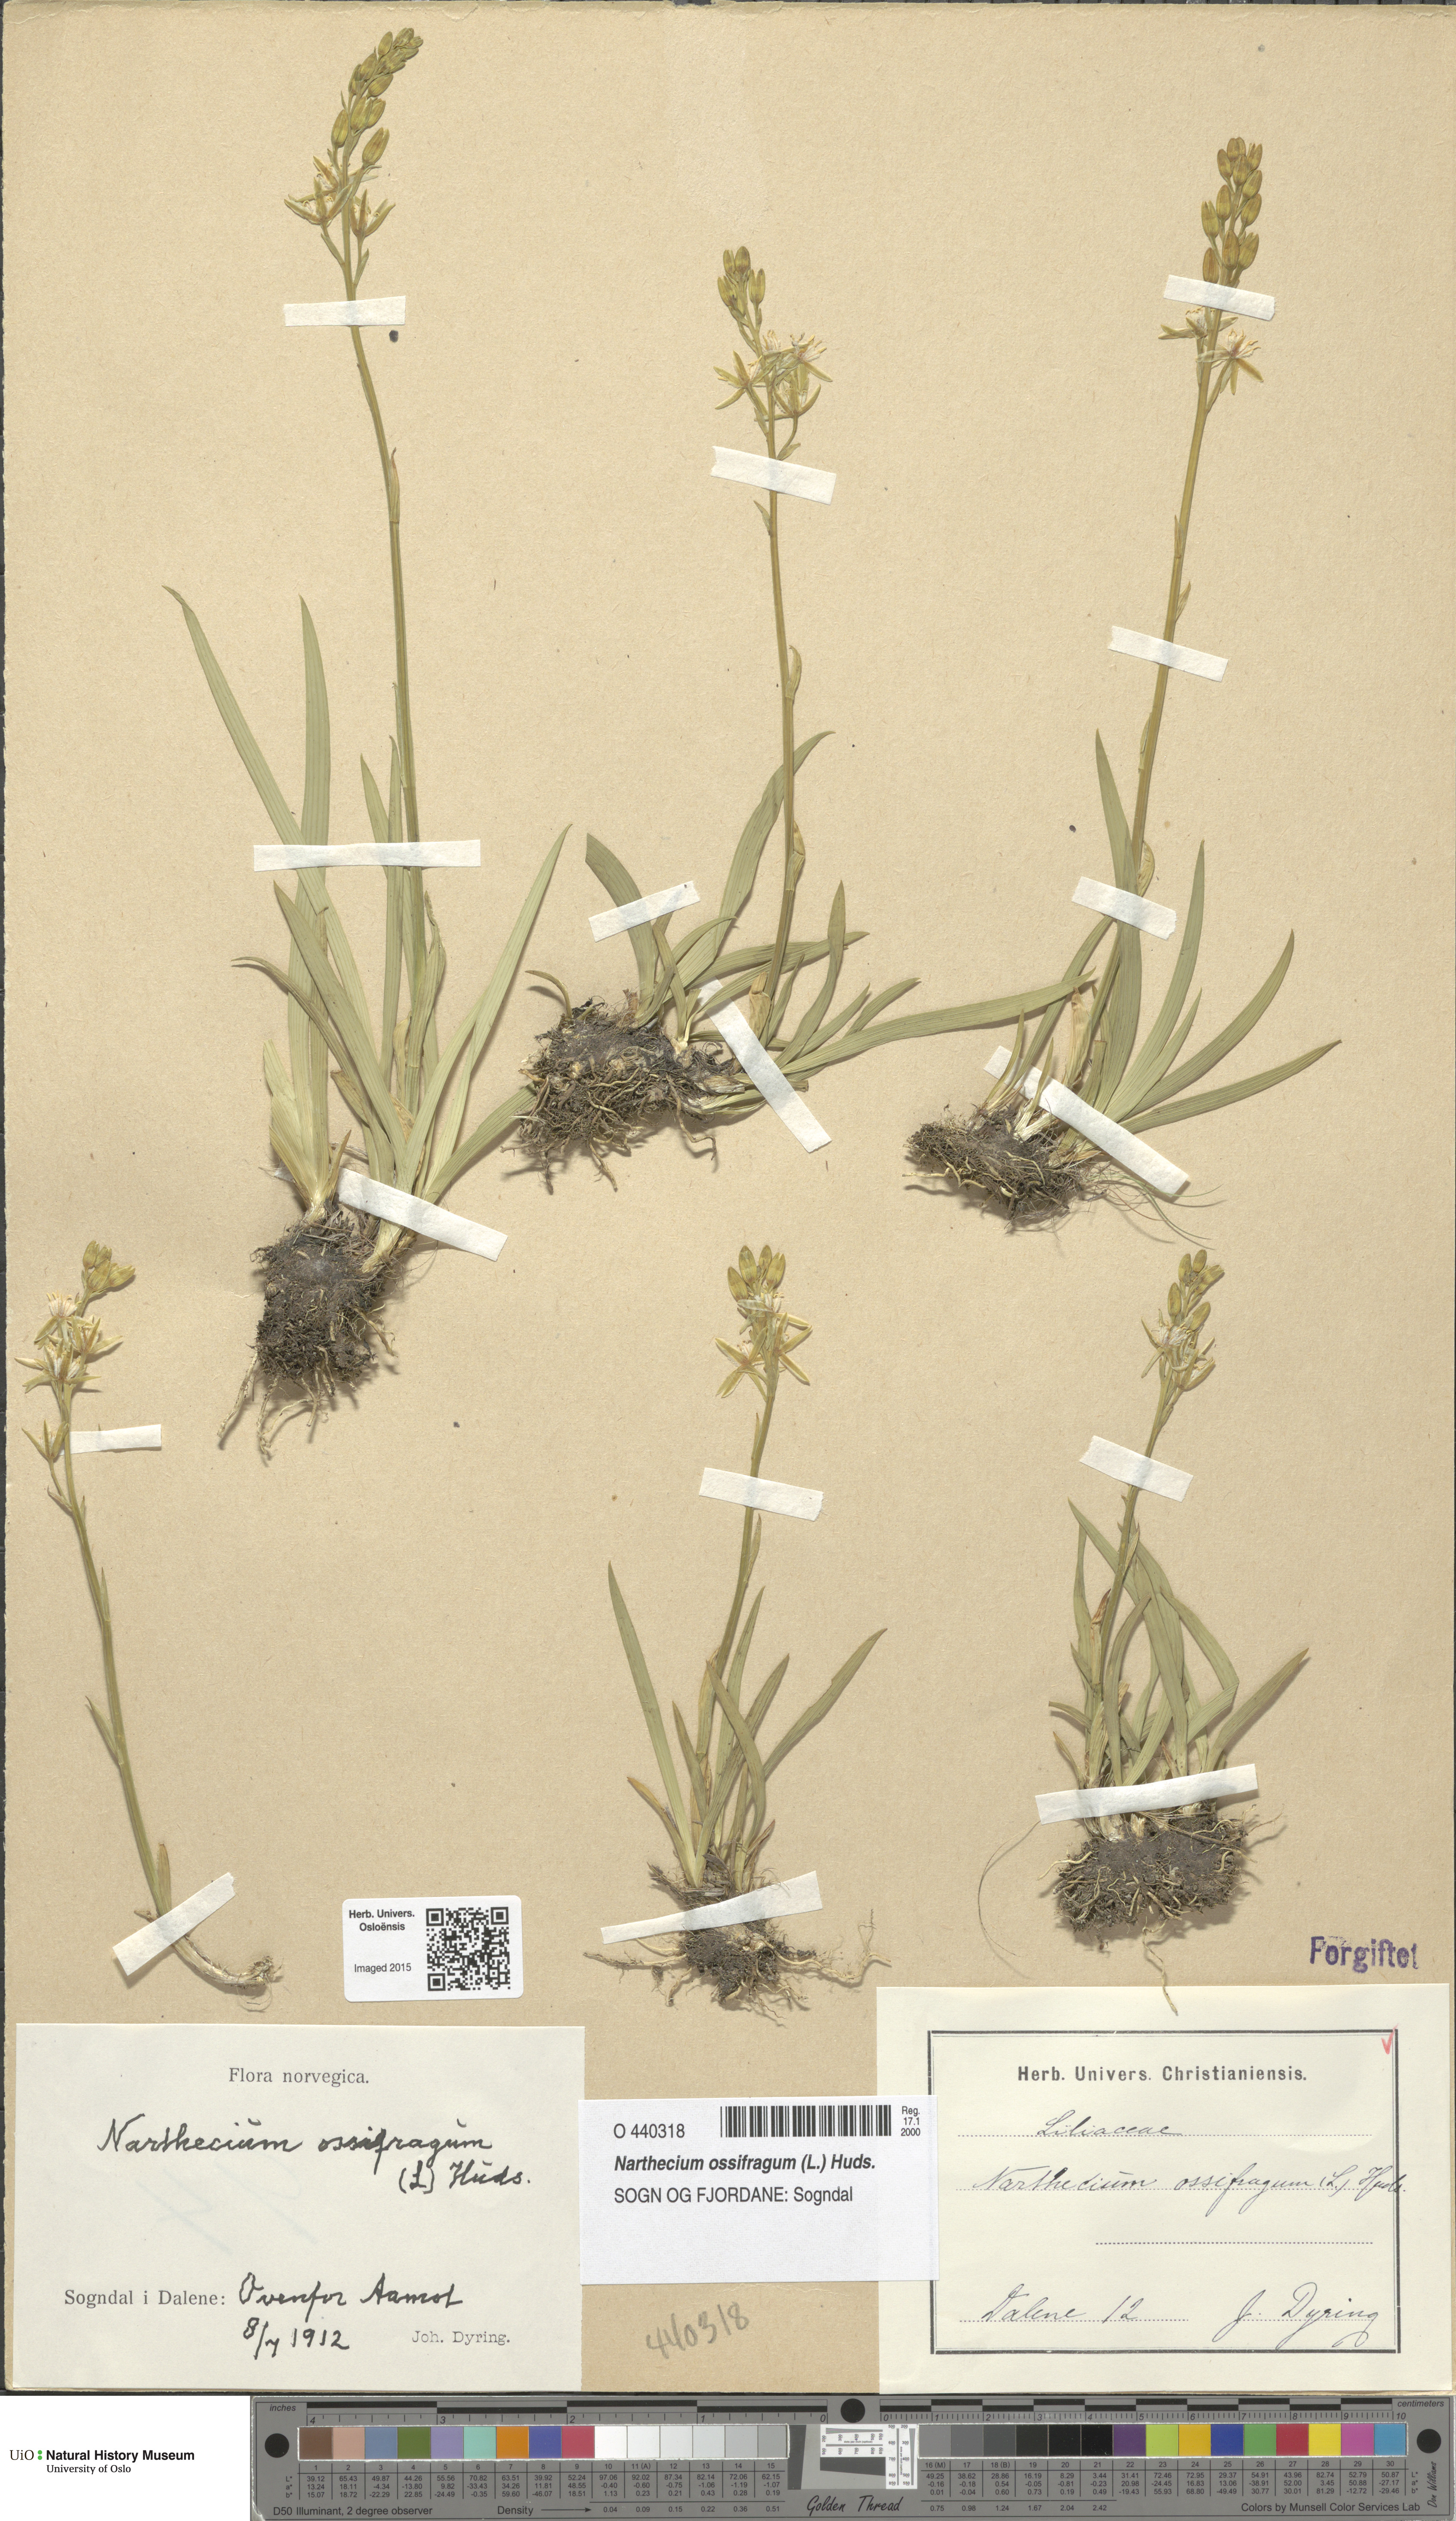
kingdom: Plantae
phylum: Tracheophyta
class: Liliopsida
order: Dioscoreales
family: Nartheciaceae
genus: Narthecium
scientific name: Narthecium ossifragum
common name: Bog asphodel
